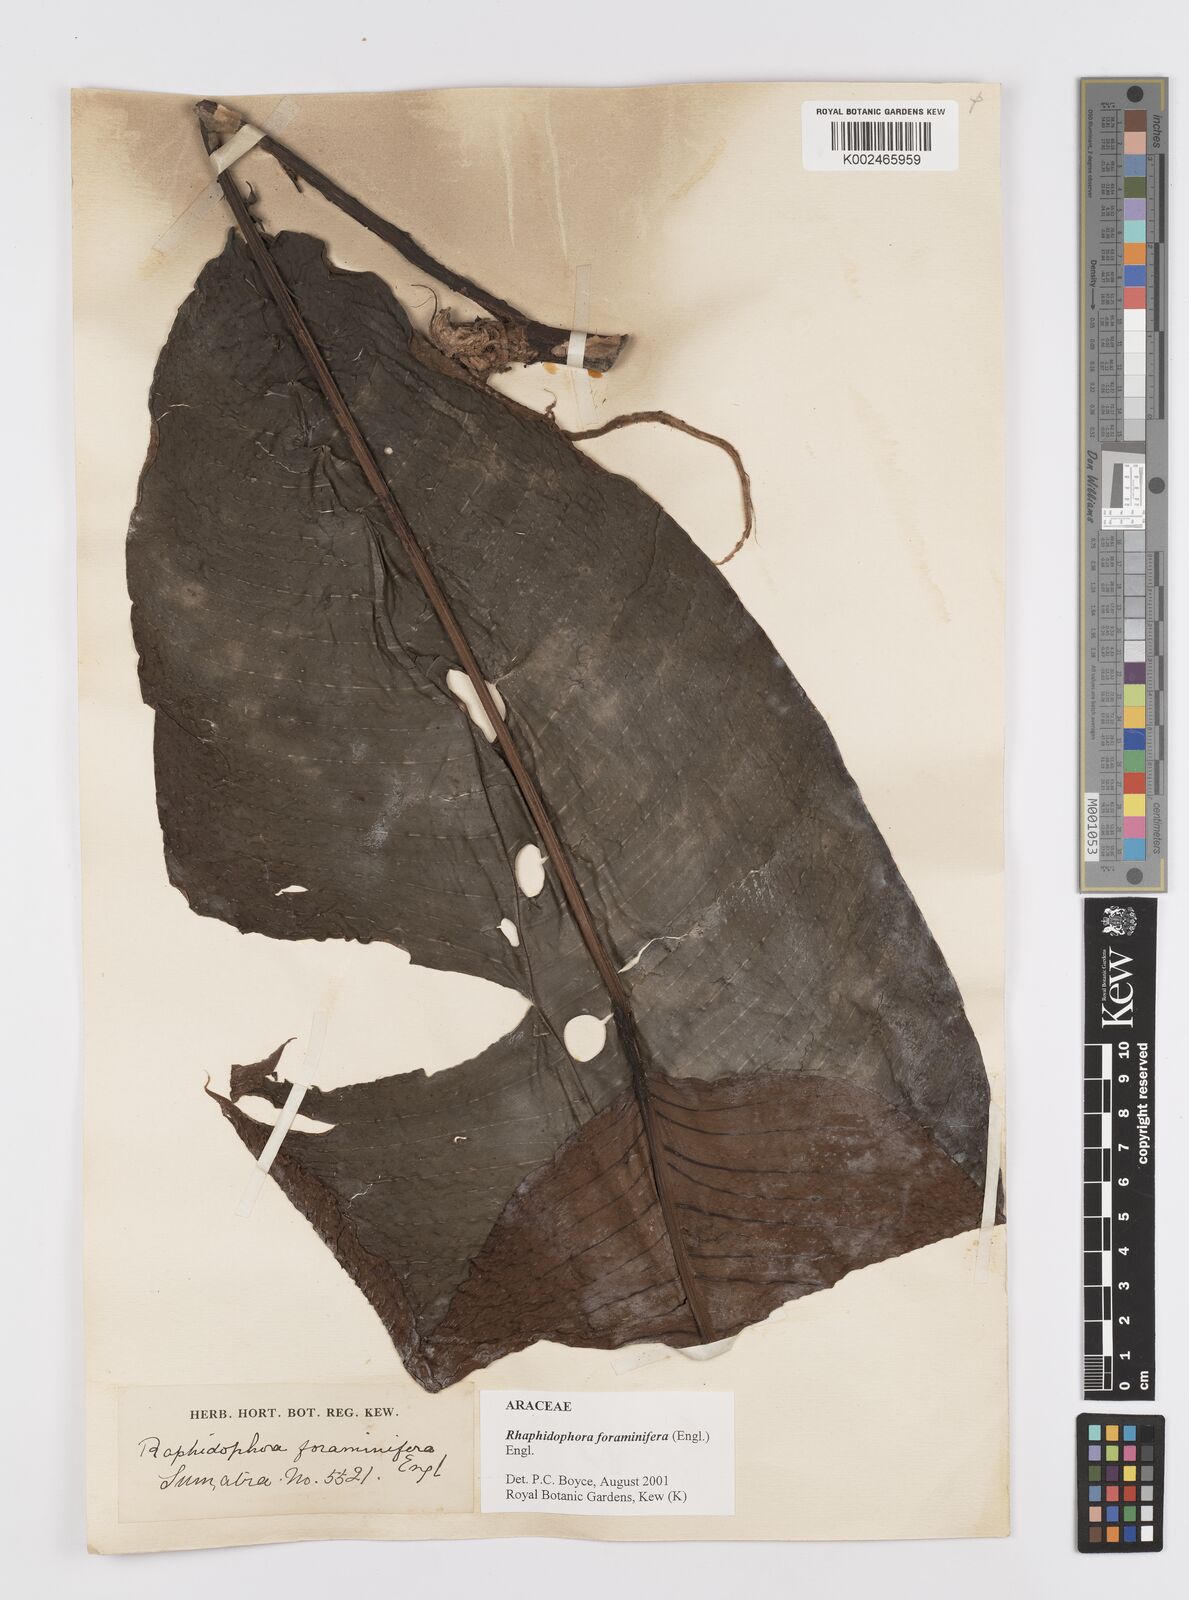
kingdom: Plantae
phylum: Tracheophyta
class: Liliopsida
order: Alismatales
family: Araceae
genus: Rhaphidophora
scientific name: Rhaphidophora foraminifera
